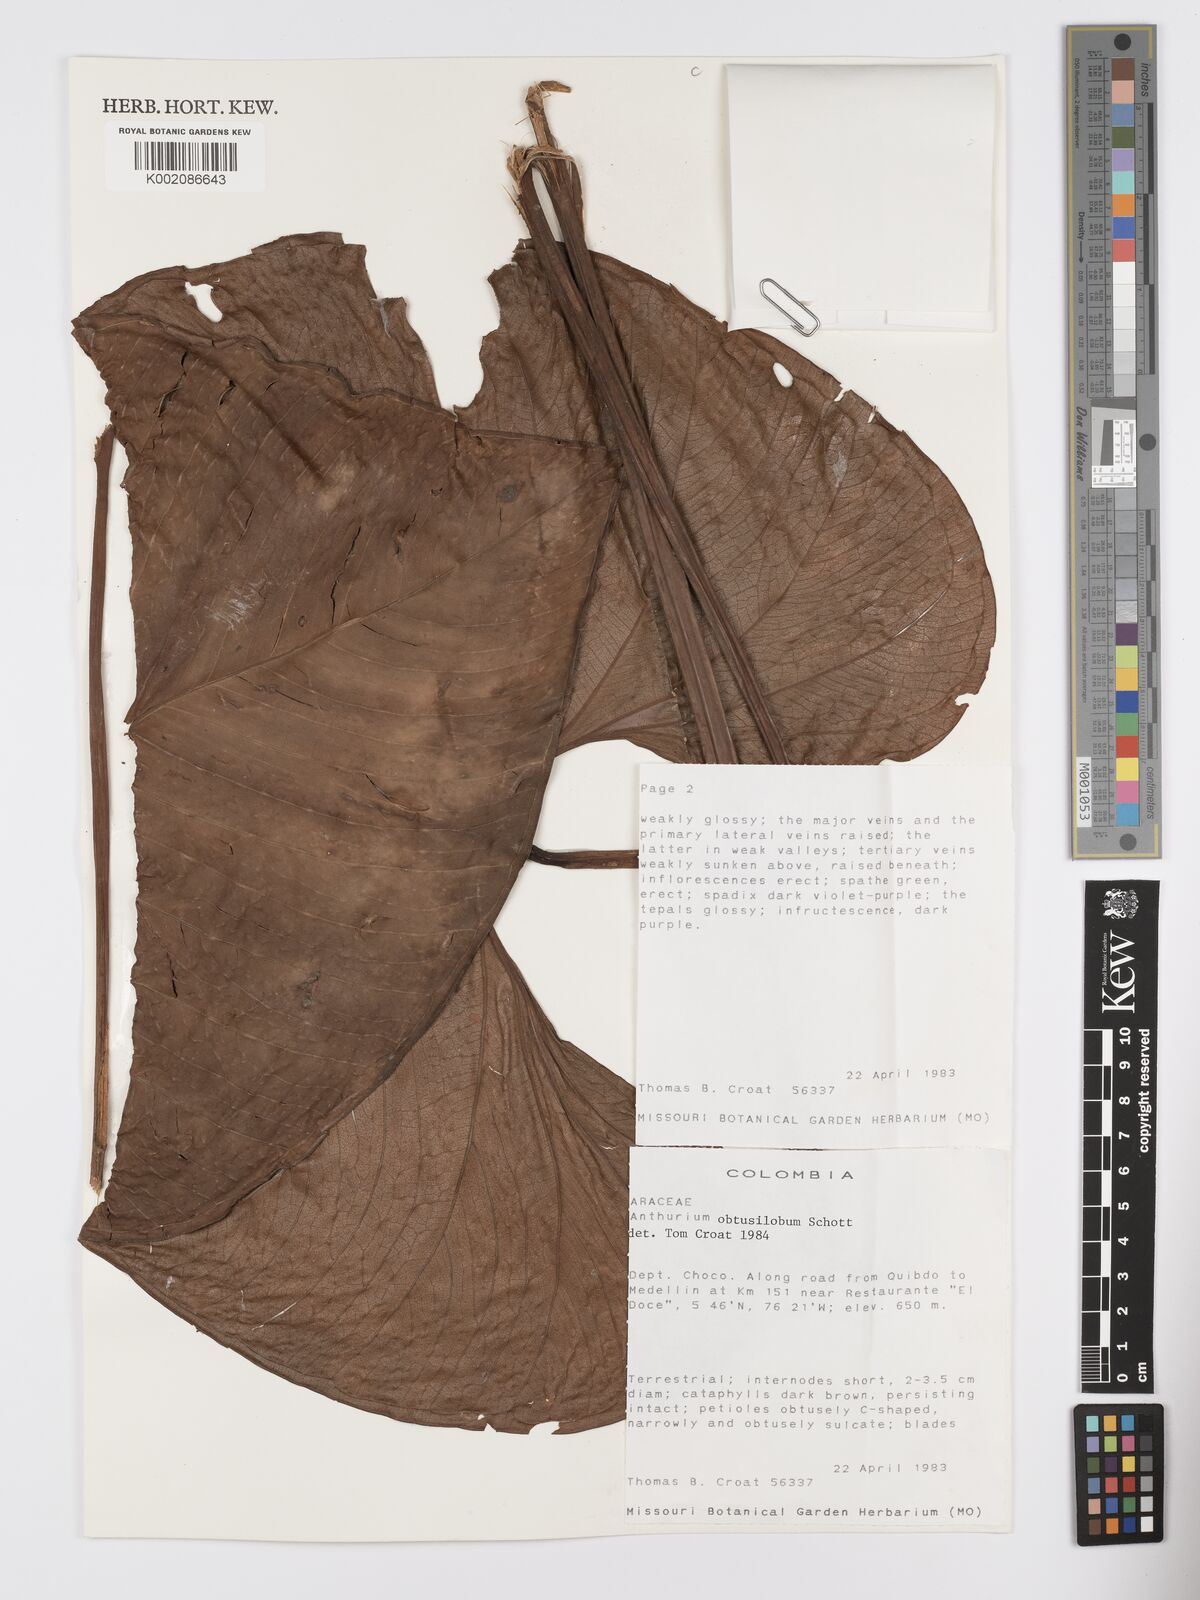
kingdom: Plantae
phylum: Tracheophyta
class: Liliopsida
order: Alismatales
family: Araceae
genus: Anthurium
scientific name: Anthurium obtusilobum
